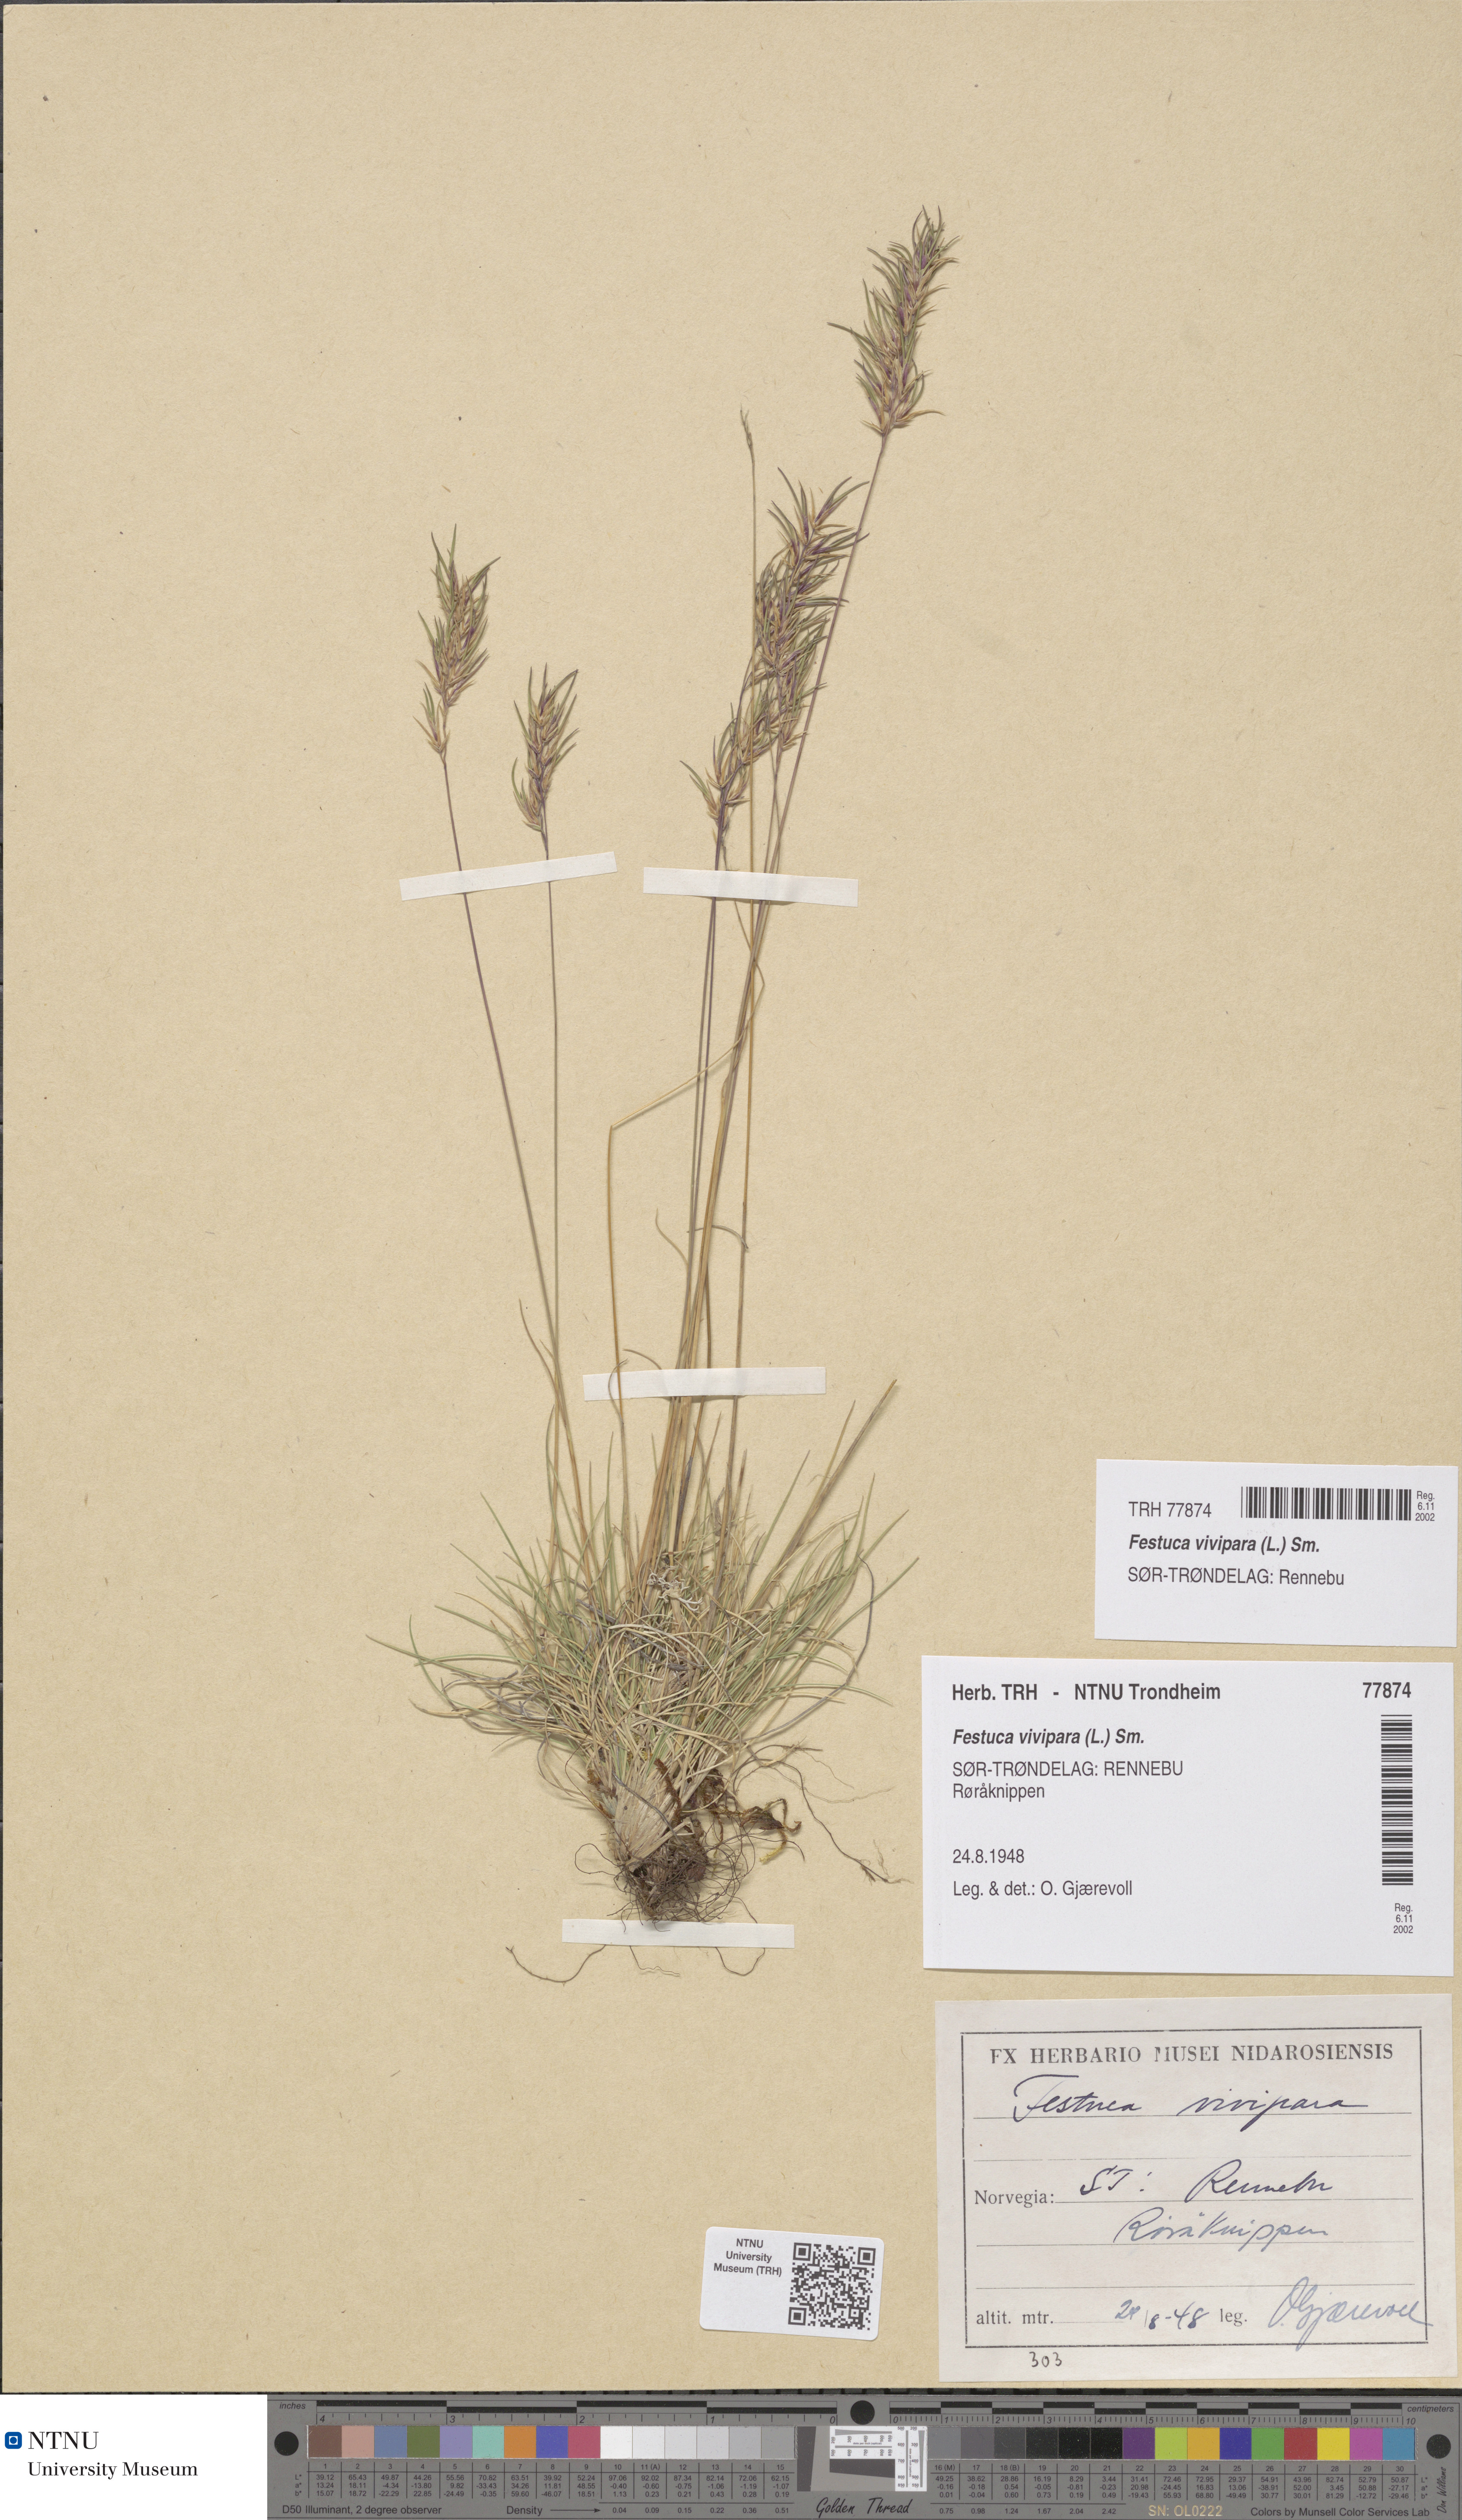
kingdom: Plantae
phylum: Tracheophyta
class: Liliopsida
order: Poales
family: Poaceae
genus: Festuca
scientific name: Festuca vivipara
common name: Viviparous sheep's-fescue
